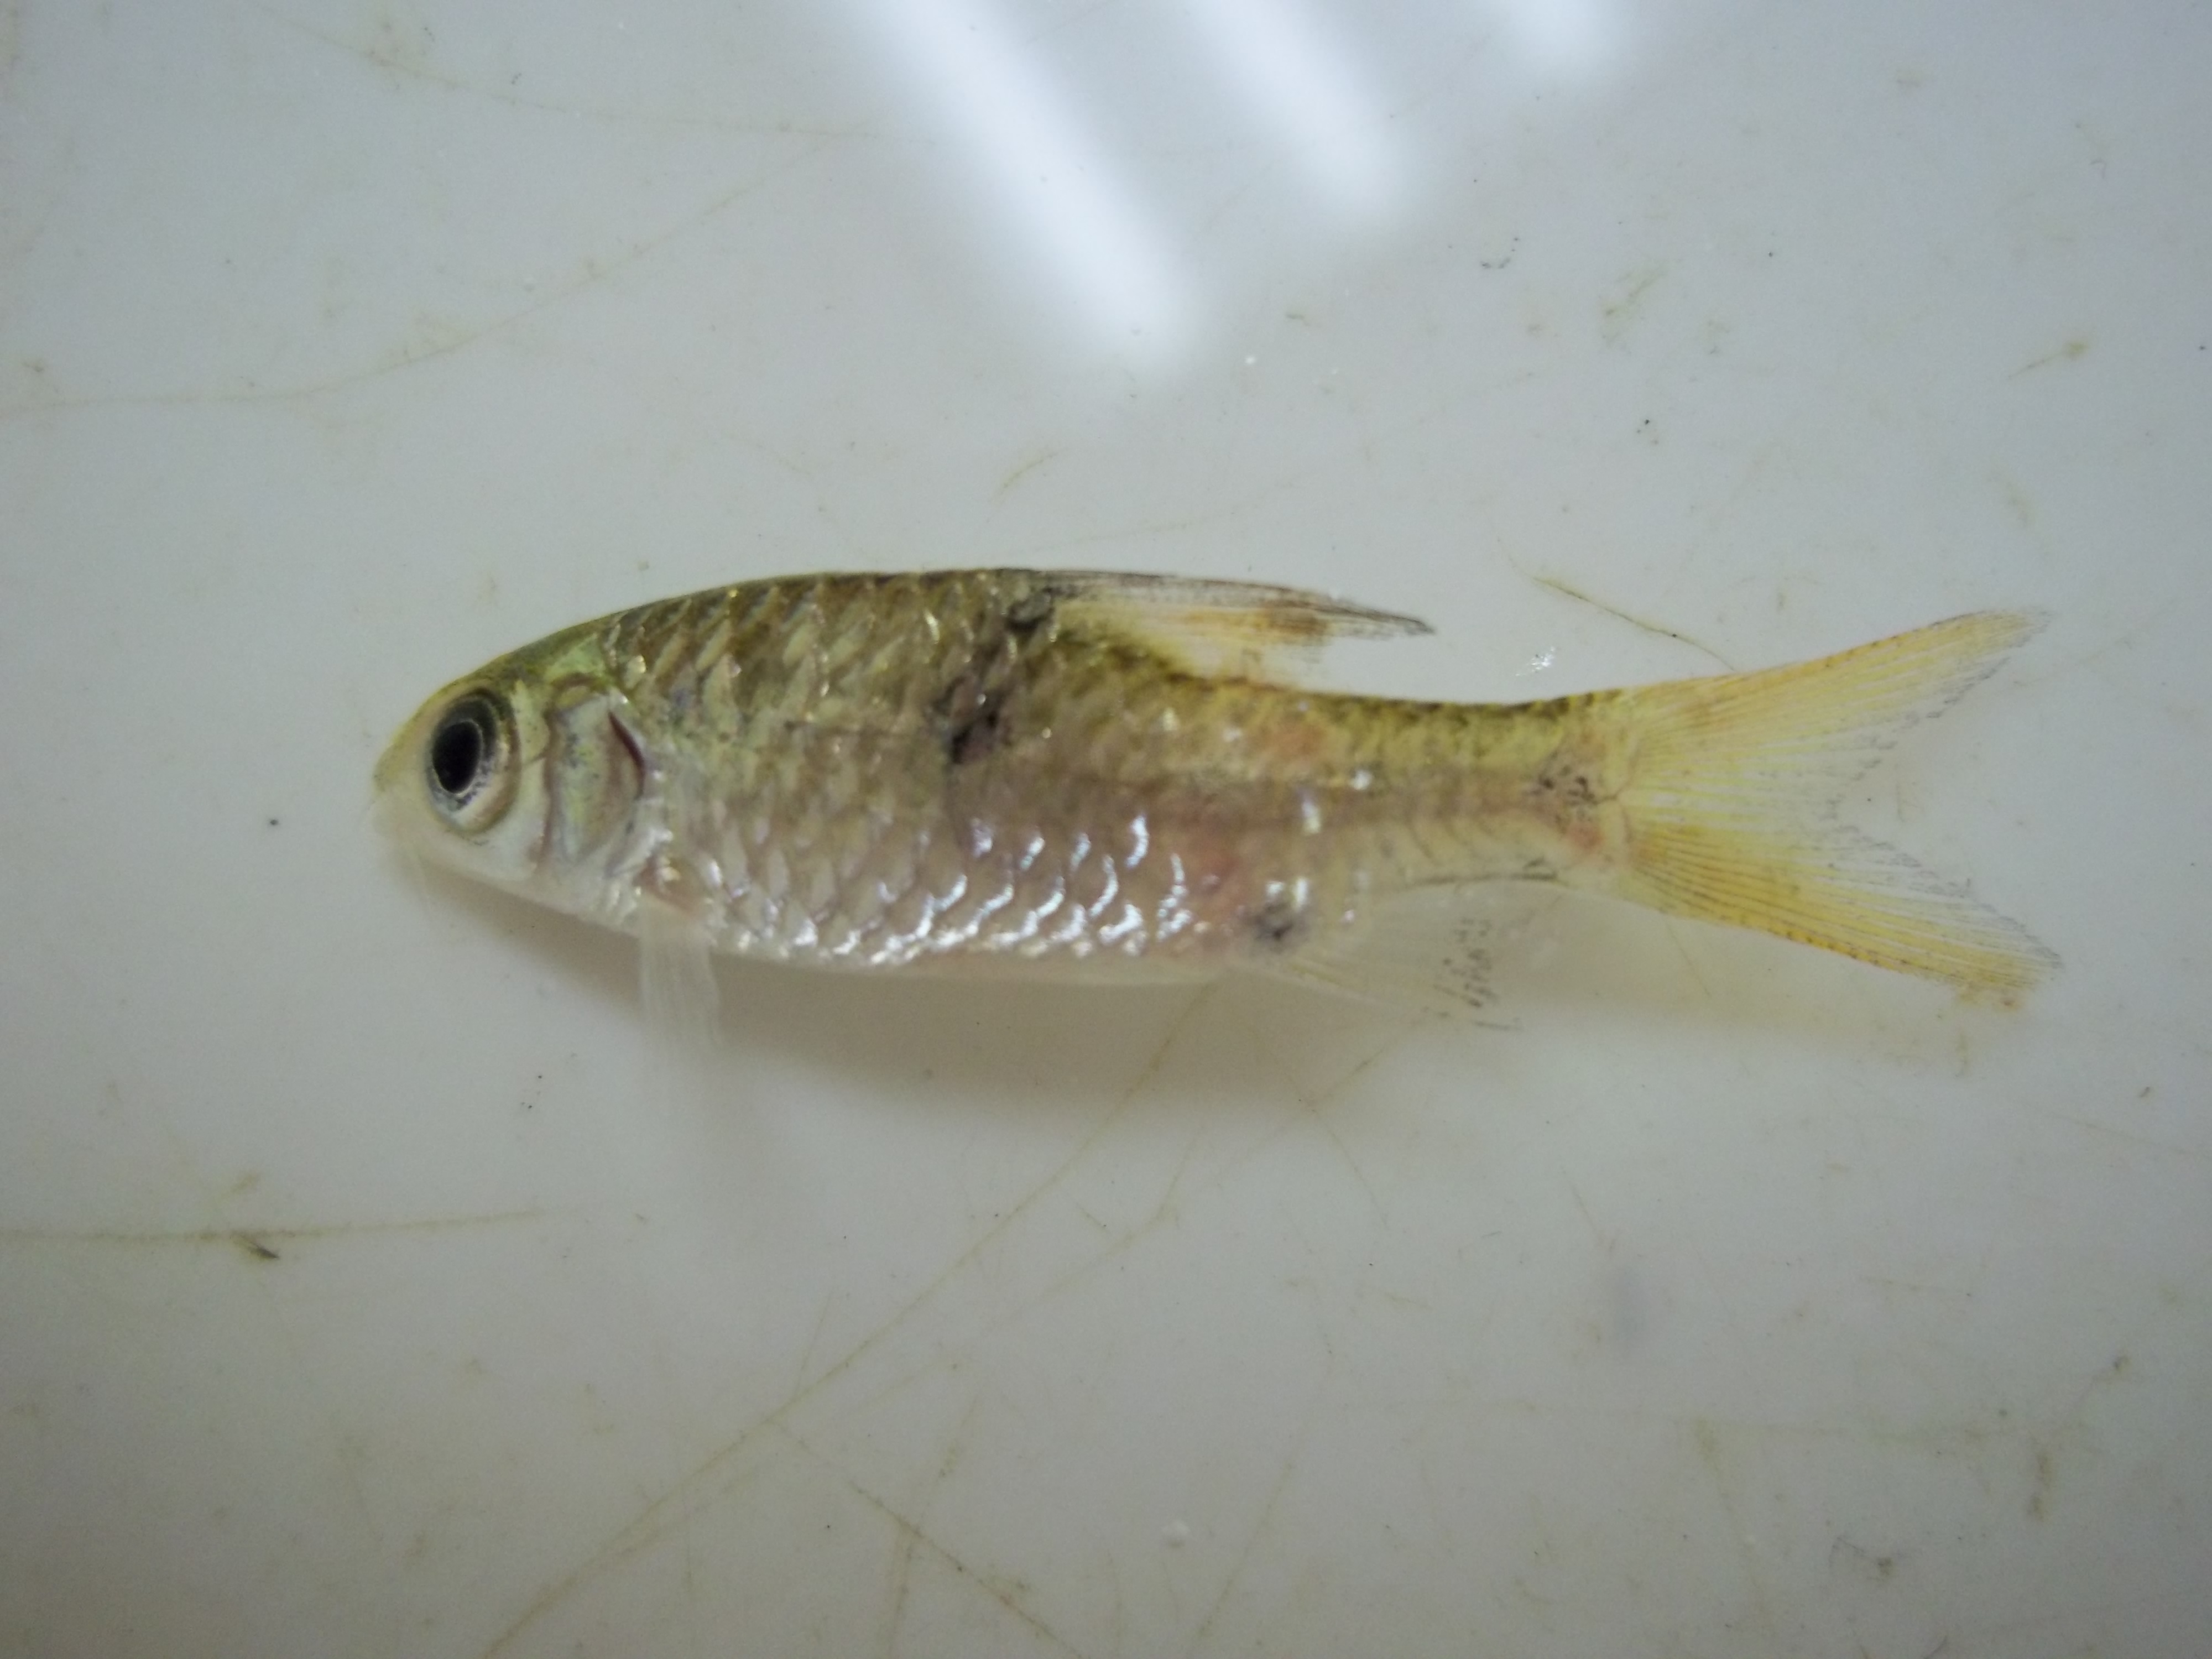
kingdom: Animalia
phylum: Chordata
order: Cypriniformes
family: Cyprinidae
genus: Puntius
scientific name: Puntius
